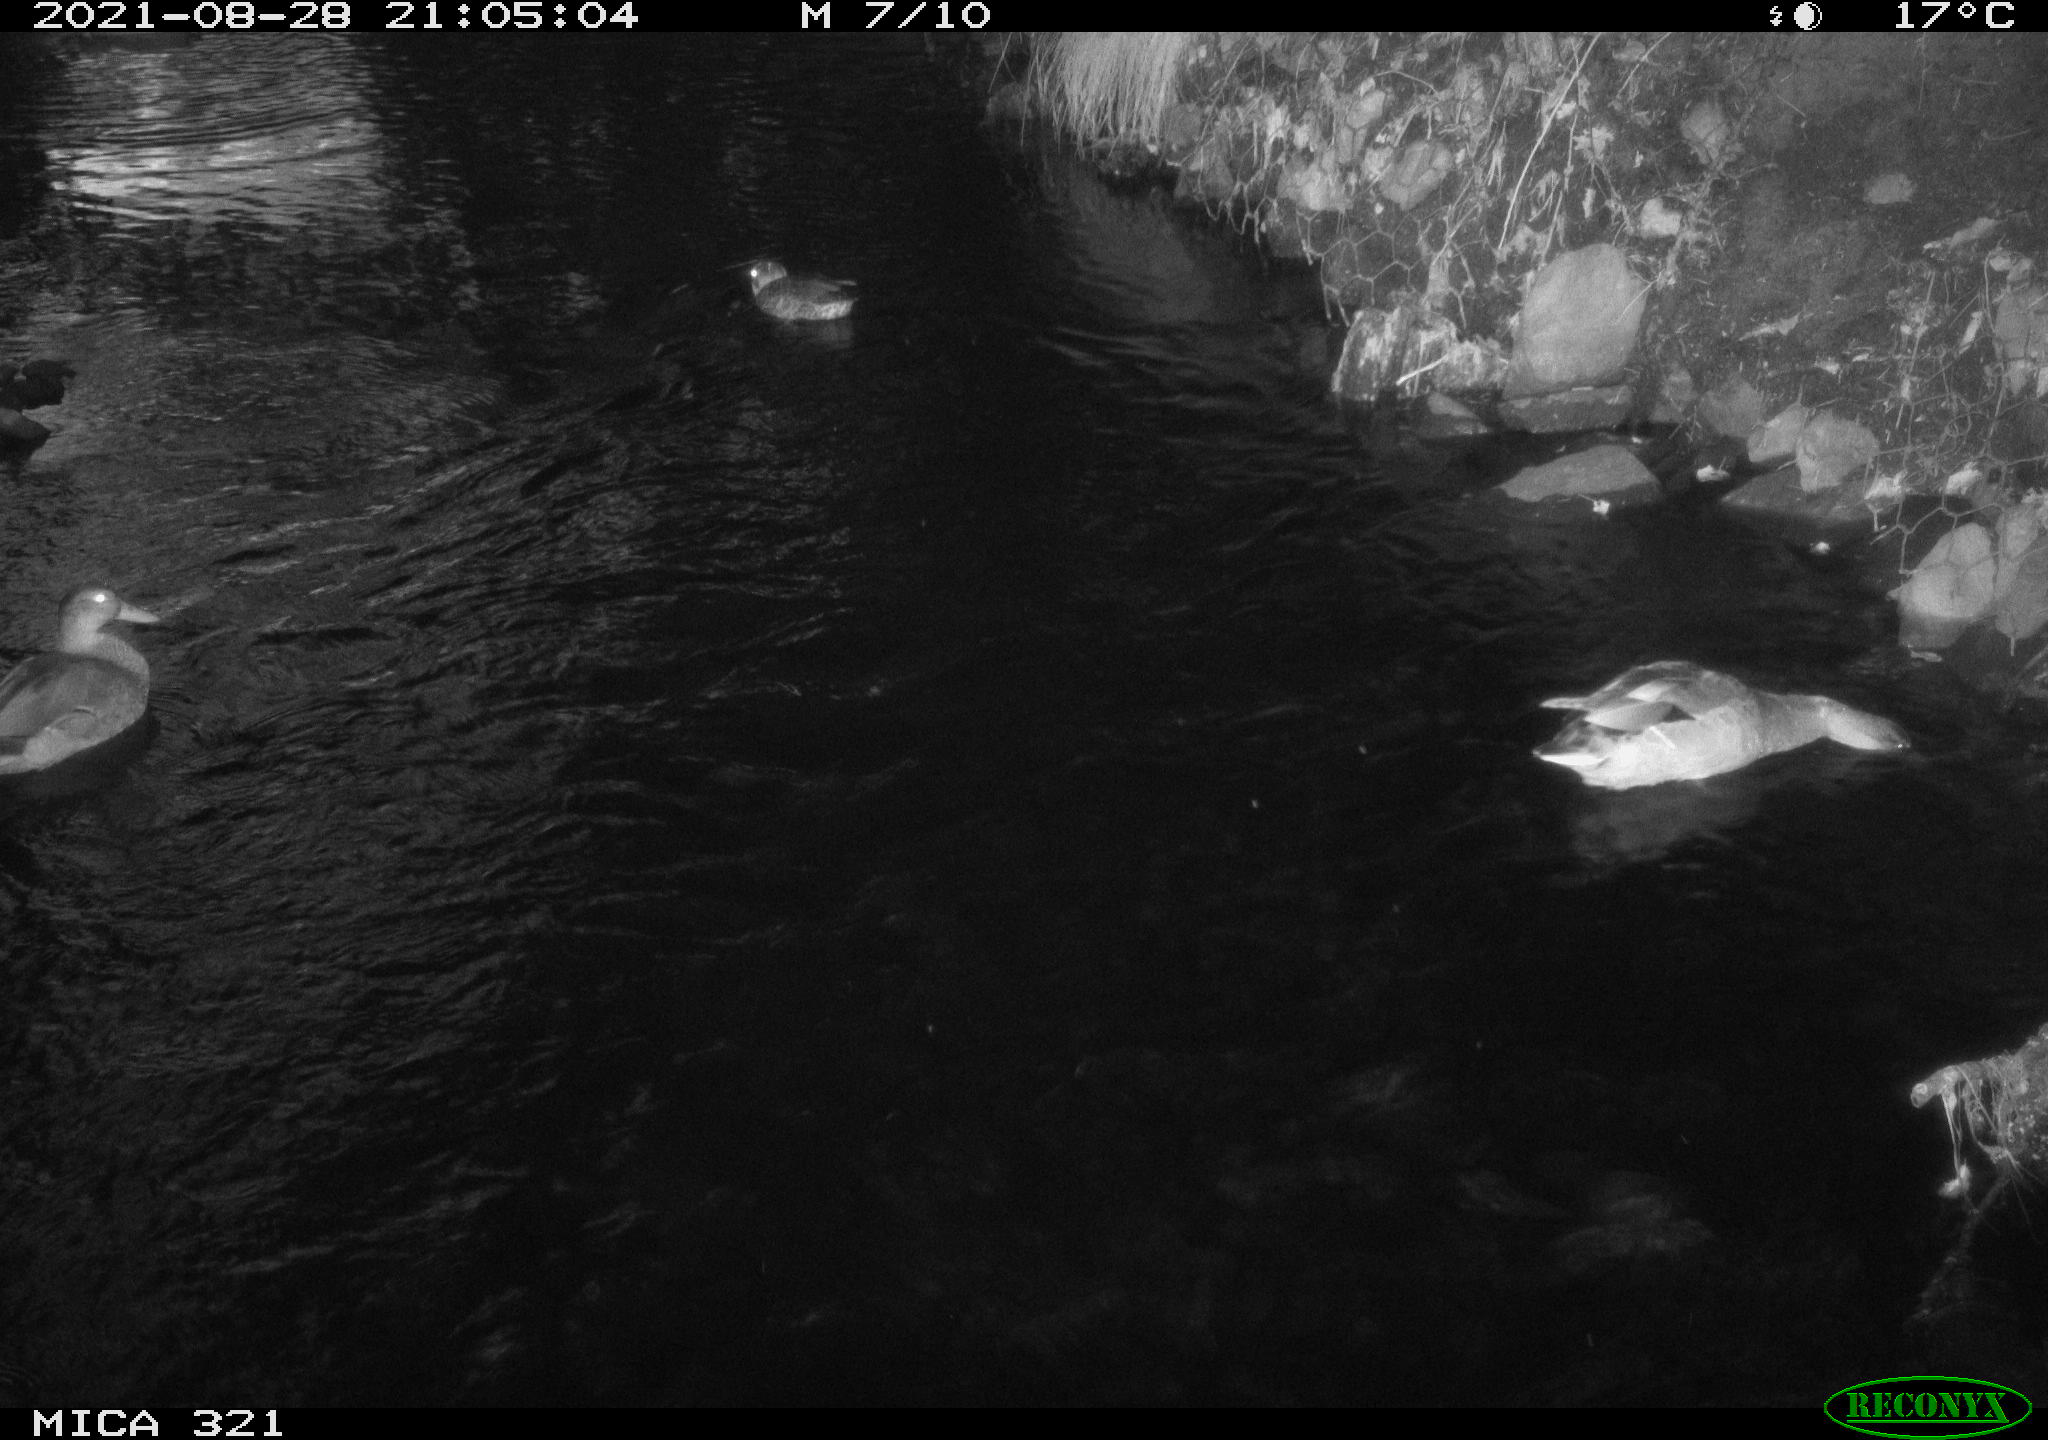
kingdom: Animalia
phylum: Chordata
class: Aves
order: Anseriformes
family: Anatidae
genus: Anas
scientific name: Anas platyrhynchos
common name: Mallard
